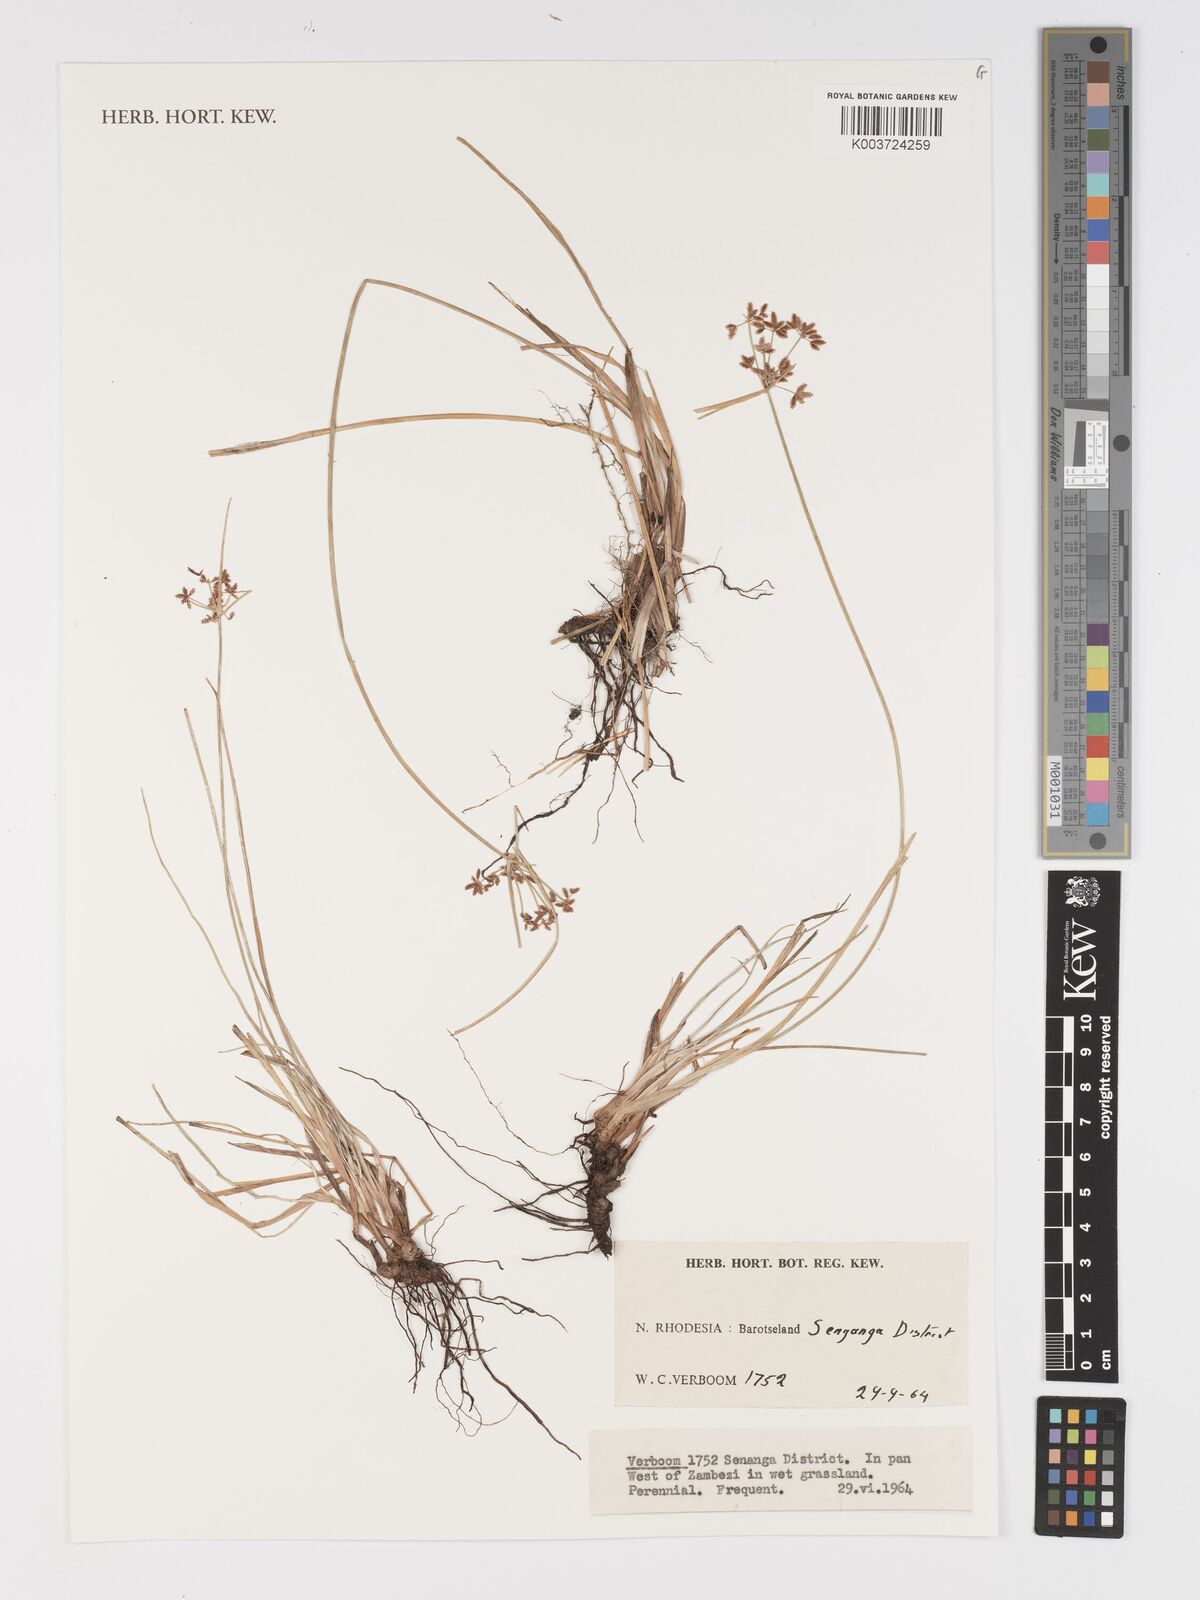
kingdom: Plantae
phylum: Tracheophyta
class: Liliopsida
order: Poales
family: Cyperaceae
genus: Cyperus
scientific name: Cyperus
